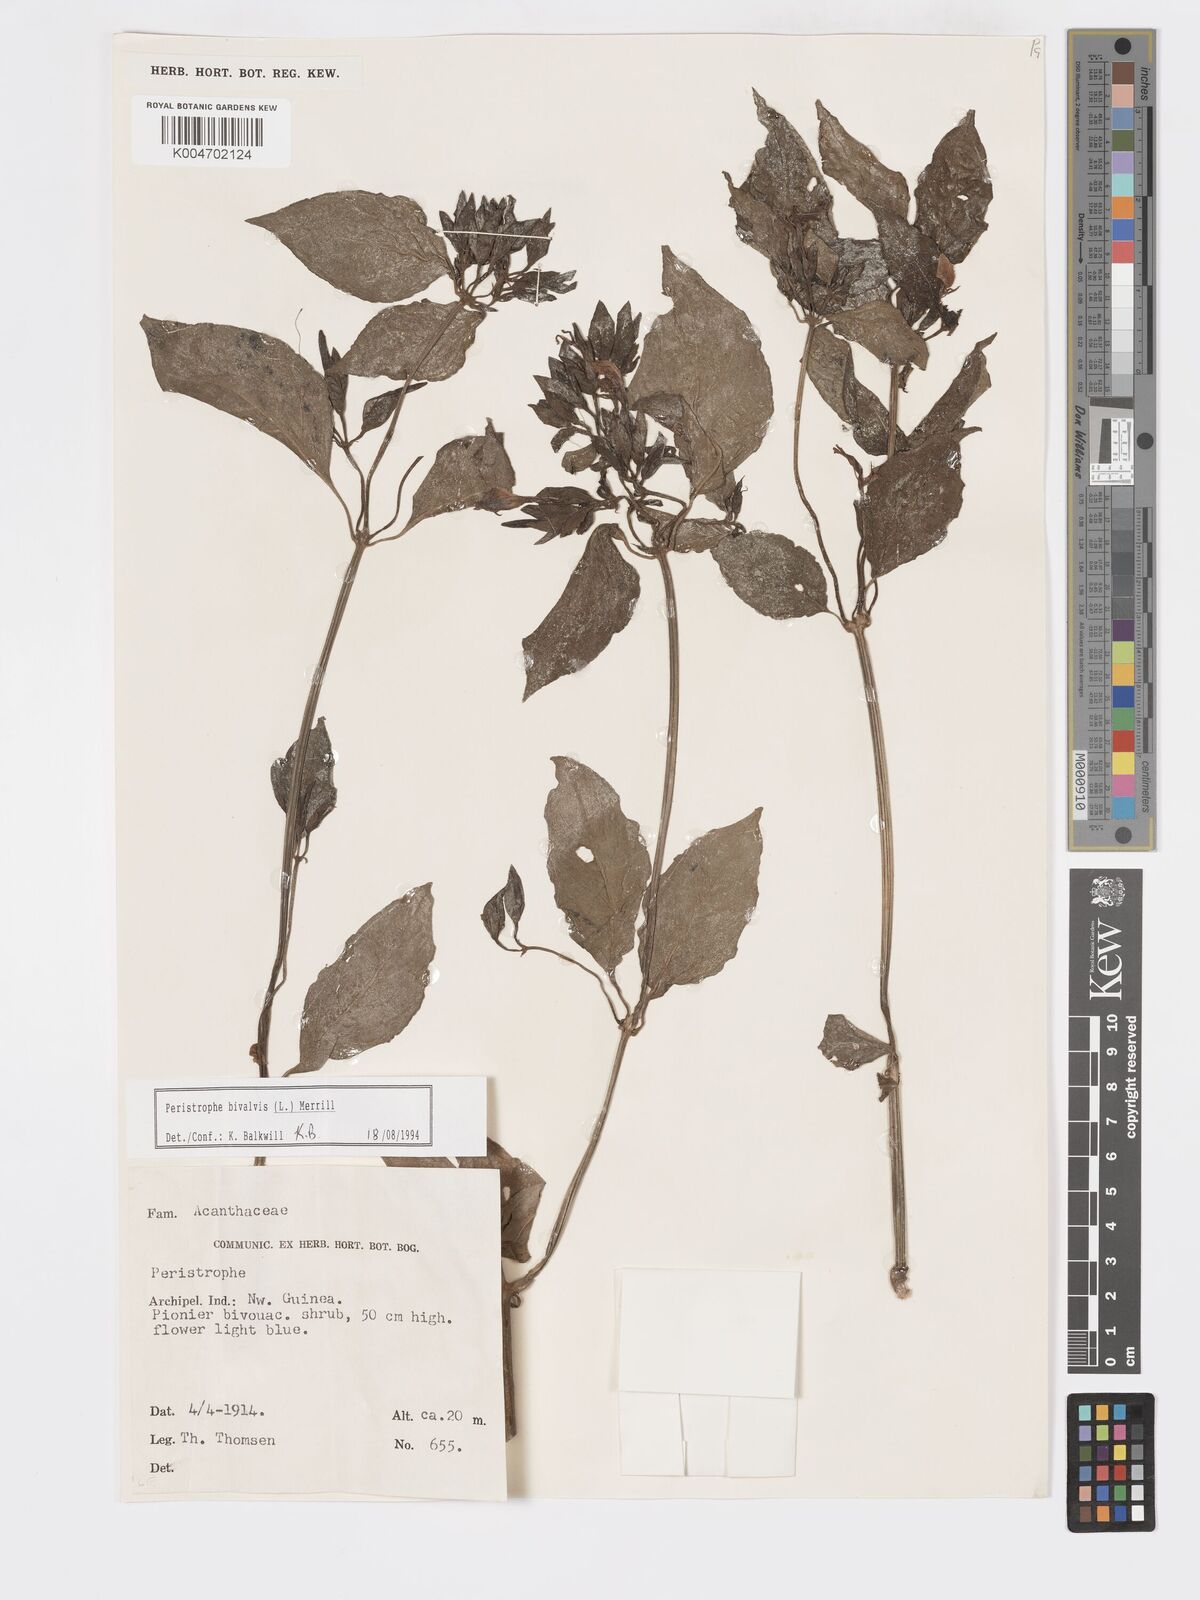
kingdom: Plantae
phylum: Tracheophyta
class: Magnoliopsida
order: Lamiales
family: Acanthaceae
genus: Dicliptera
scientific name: Dicliptera
